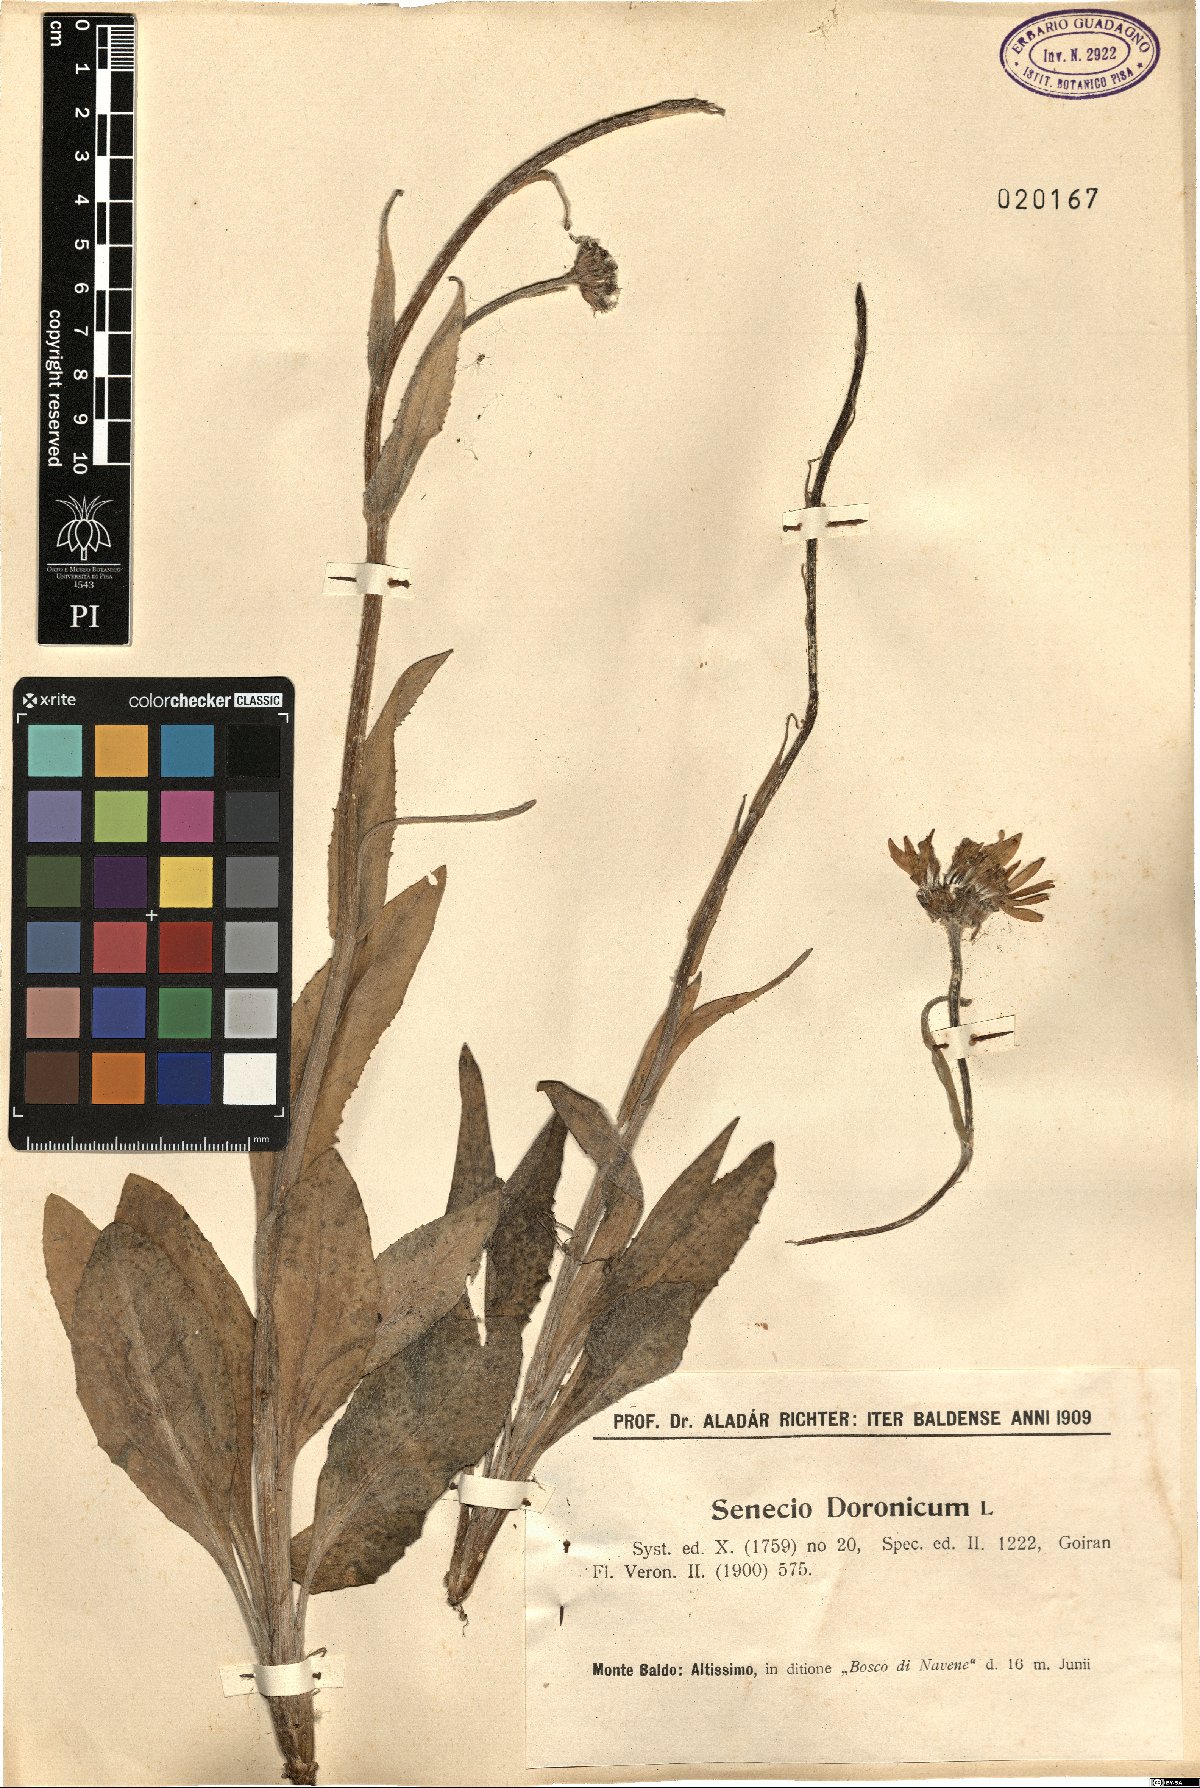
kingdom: Plantae
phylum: Tracheophyta
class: Magnoliopsida
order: Asterales
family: Asteraceae
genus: Senecio
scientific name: Senecio doronicum
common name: Chamois ragwort
